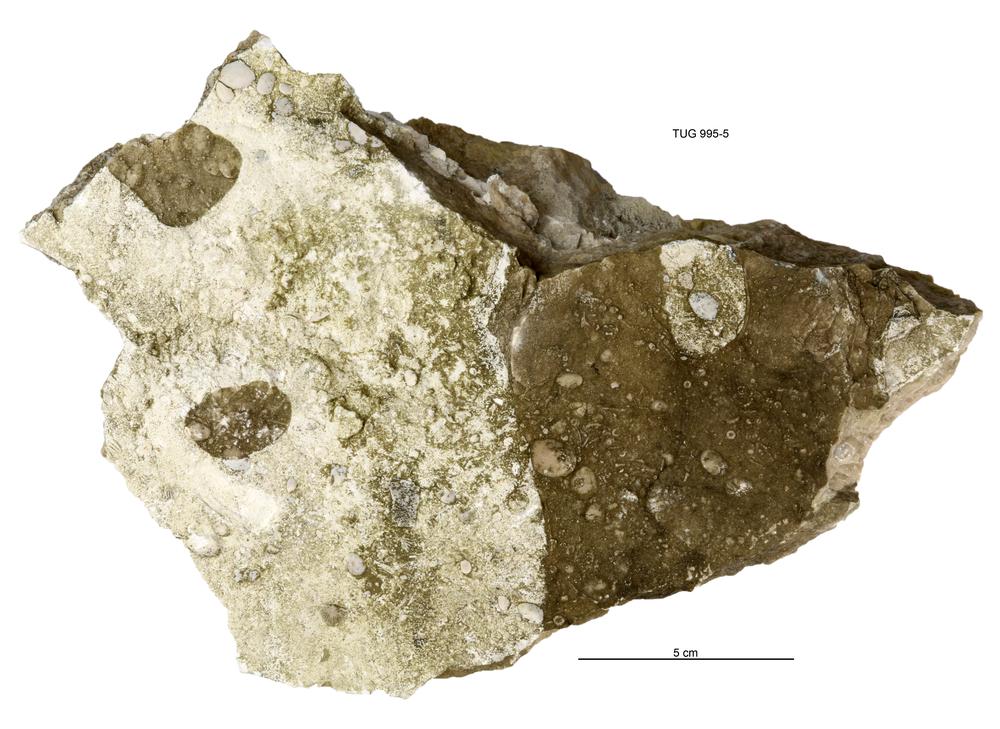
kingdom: Animalia
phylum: Brachiopoda
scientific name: Brachiopoda
